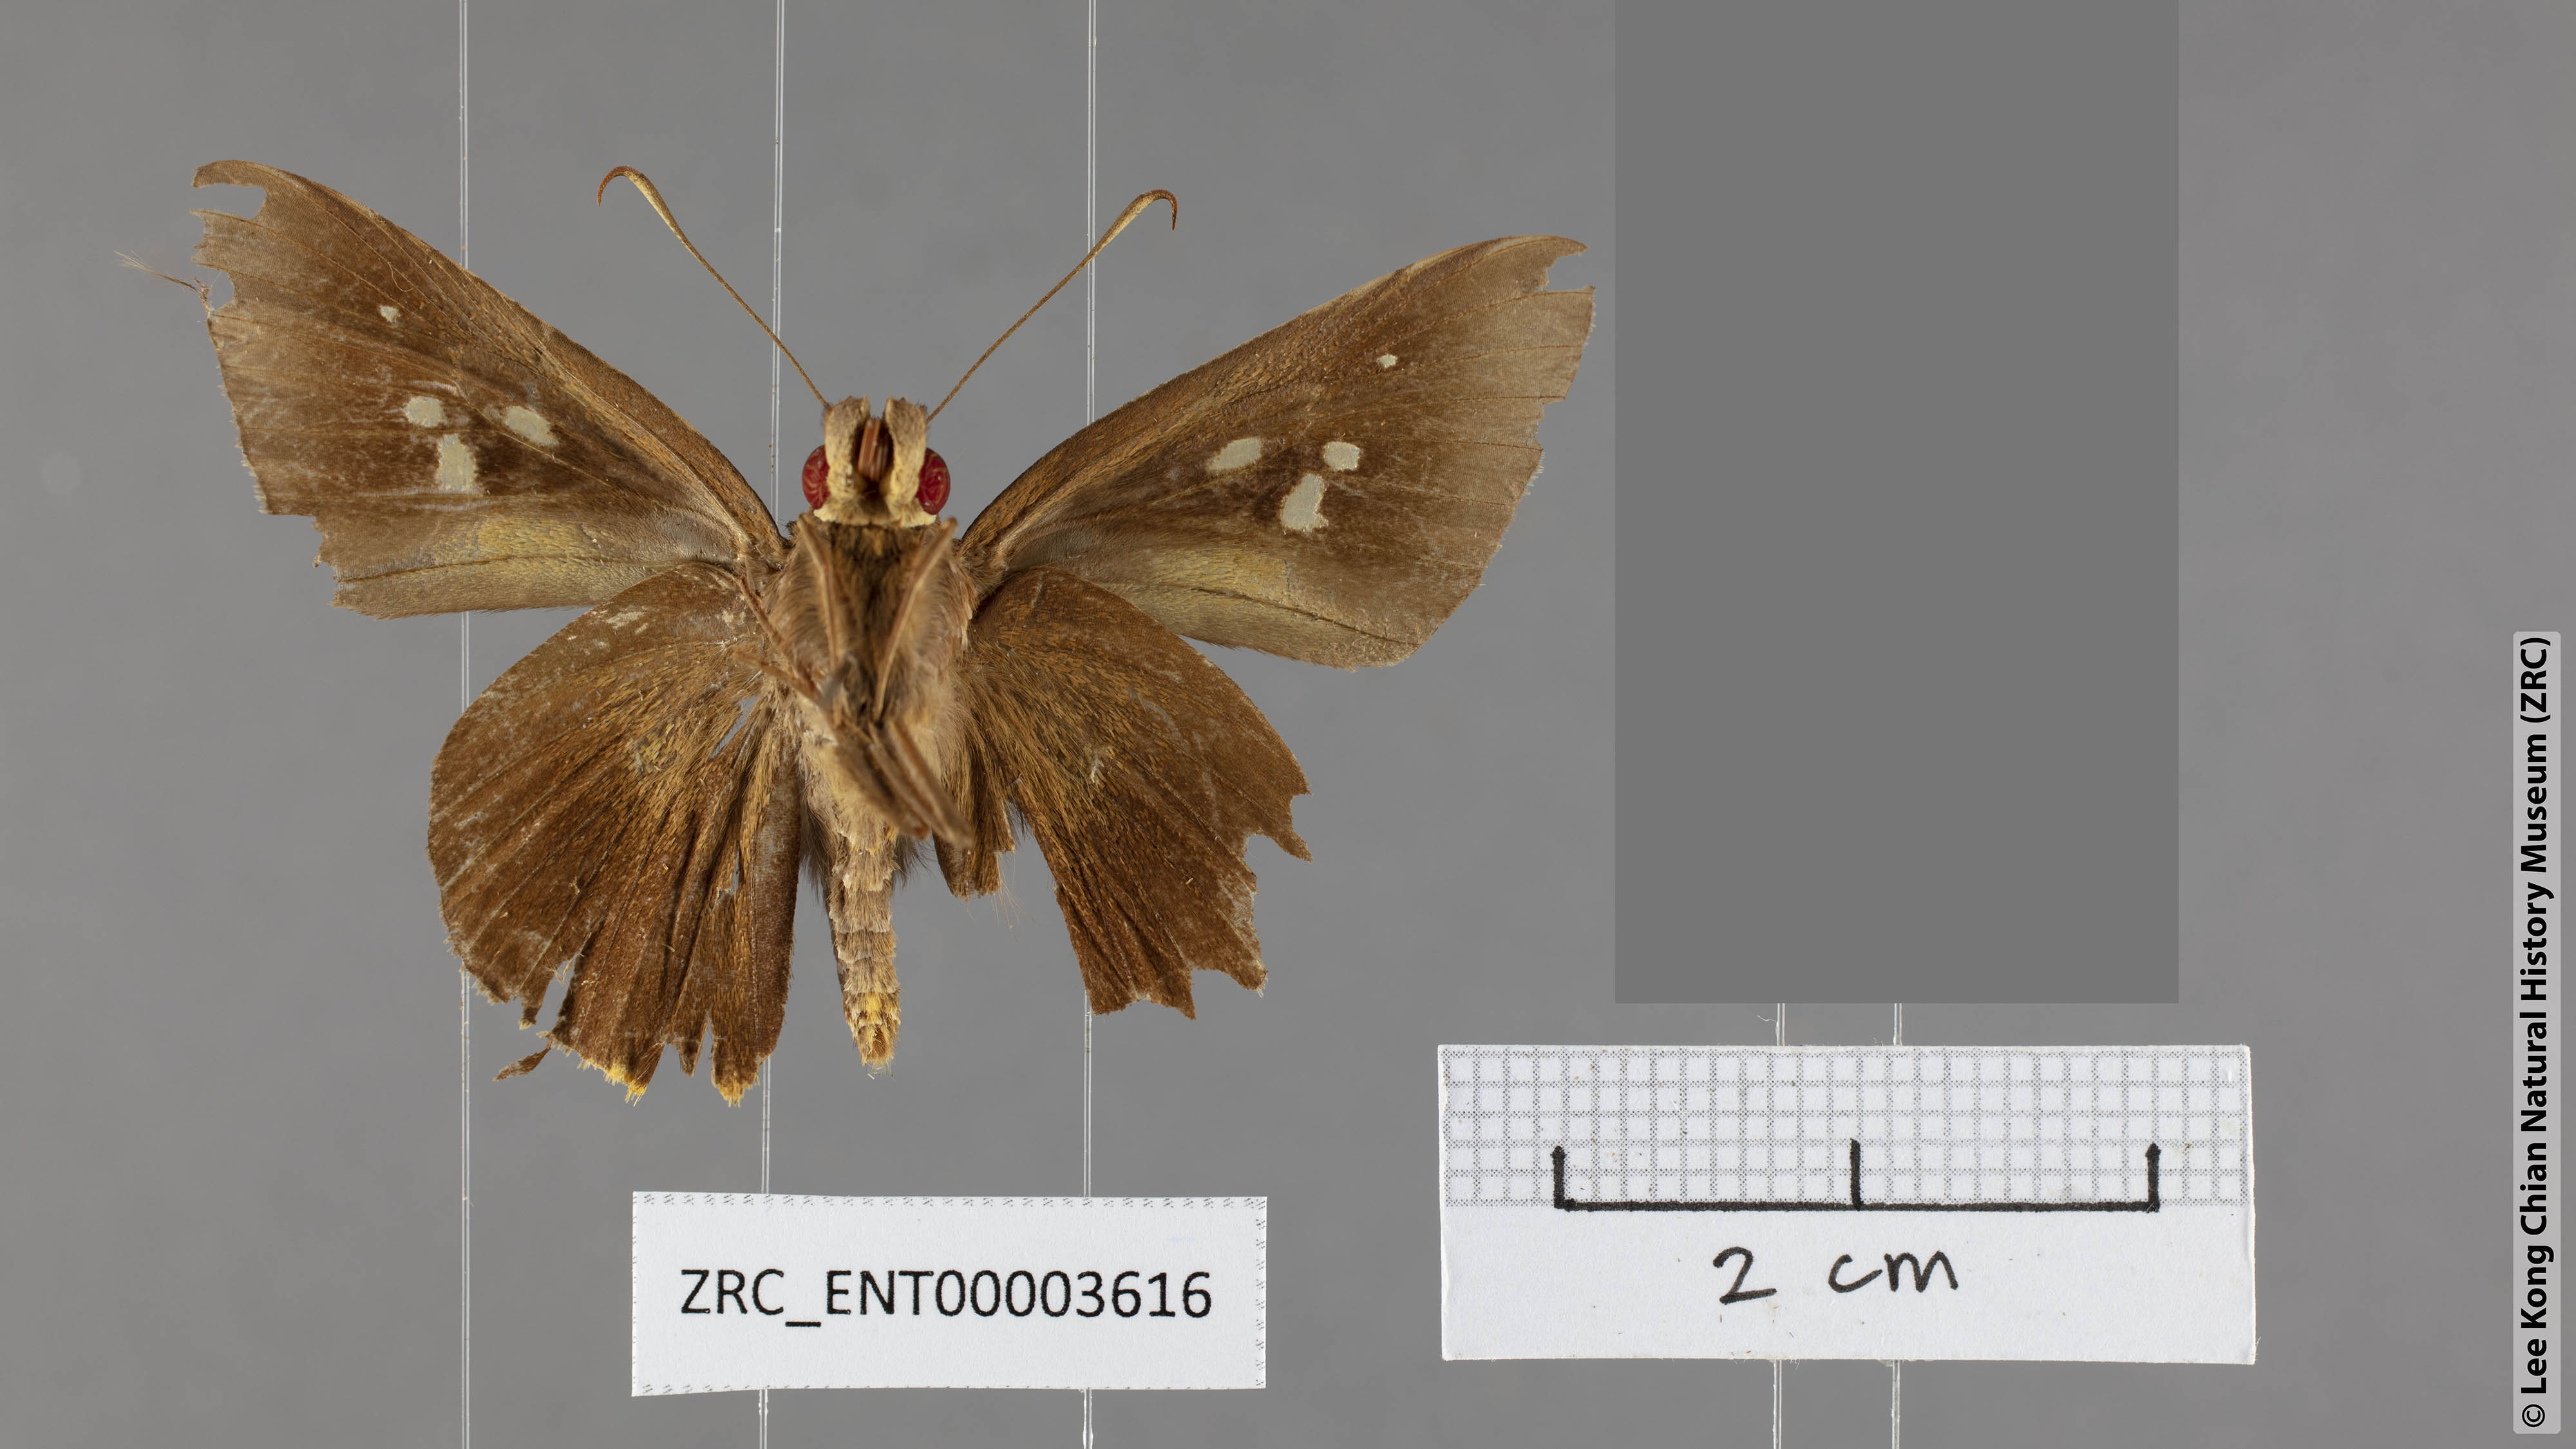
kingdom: Animalia
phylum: Arthropoda
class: Insecta
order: Lepidoptera
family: Hesperiidae
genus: Zela
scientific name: Zela zeus
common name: Orange-ciliate palmer
